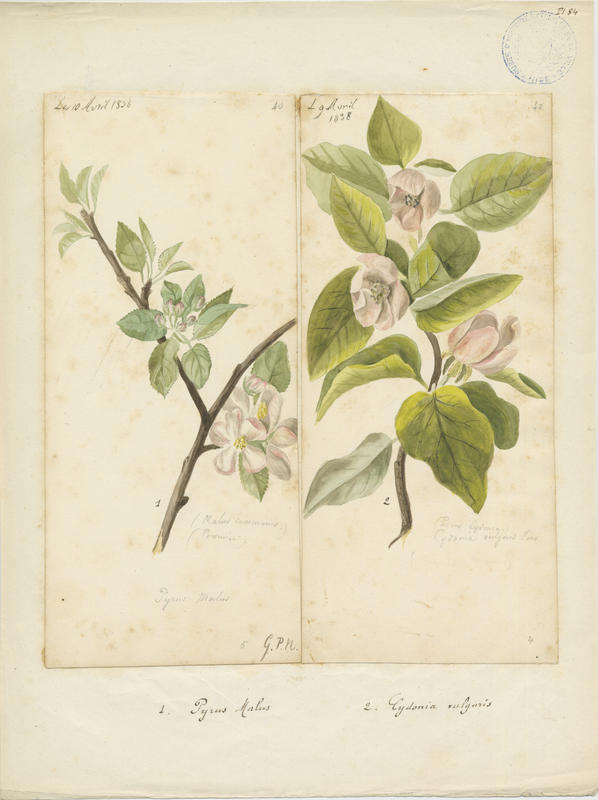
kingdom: Plantae
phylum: Tracheophyta
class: Magnoliopsida
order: Rosales
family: Rosaceae
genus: Cydonia
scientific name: Cydonia oblonga
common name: Quince
